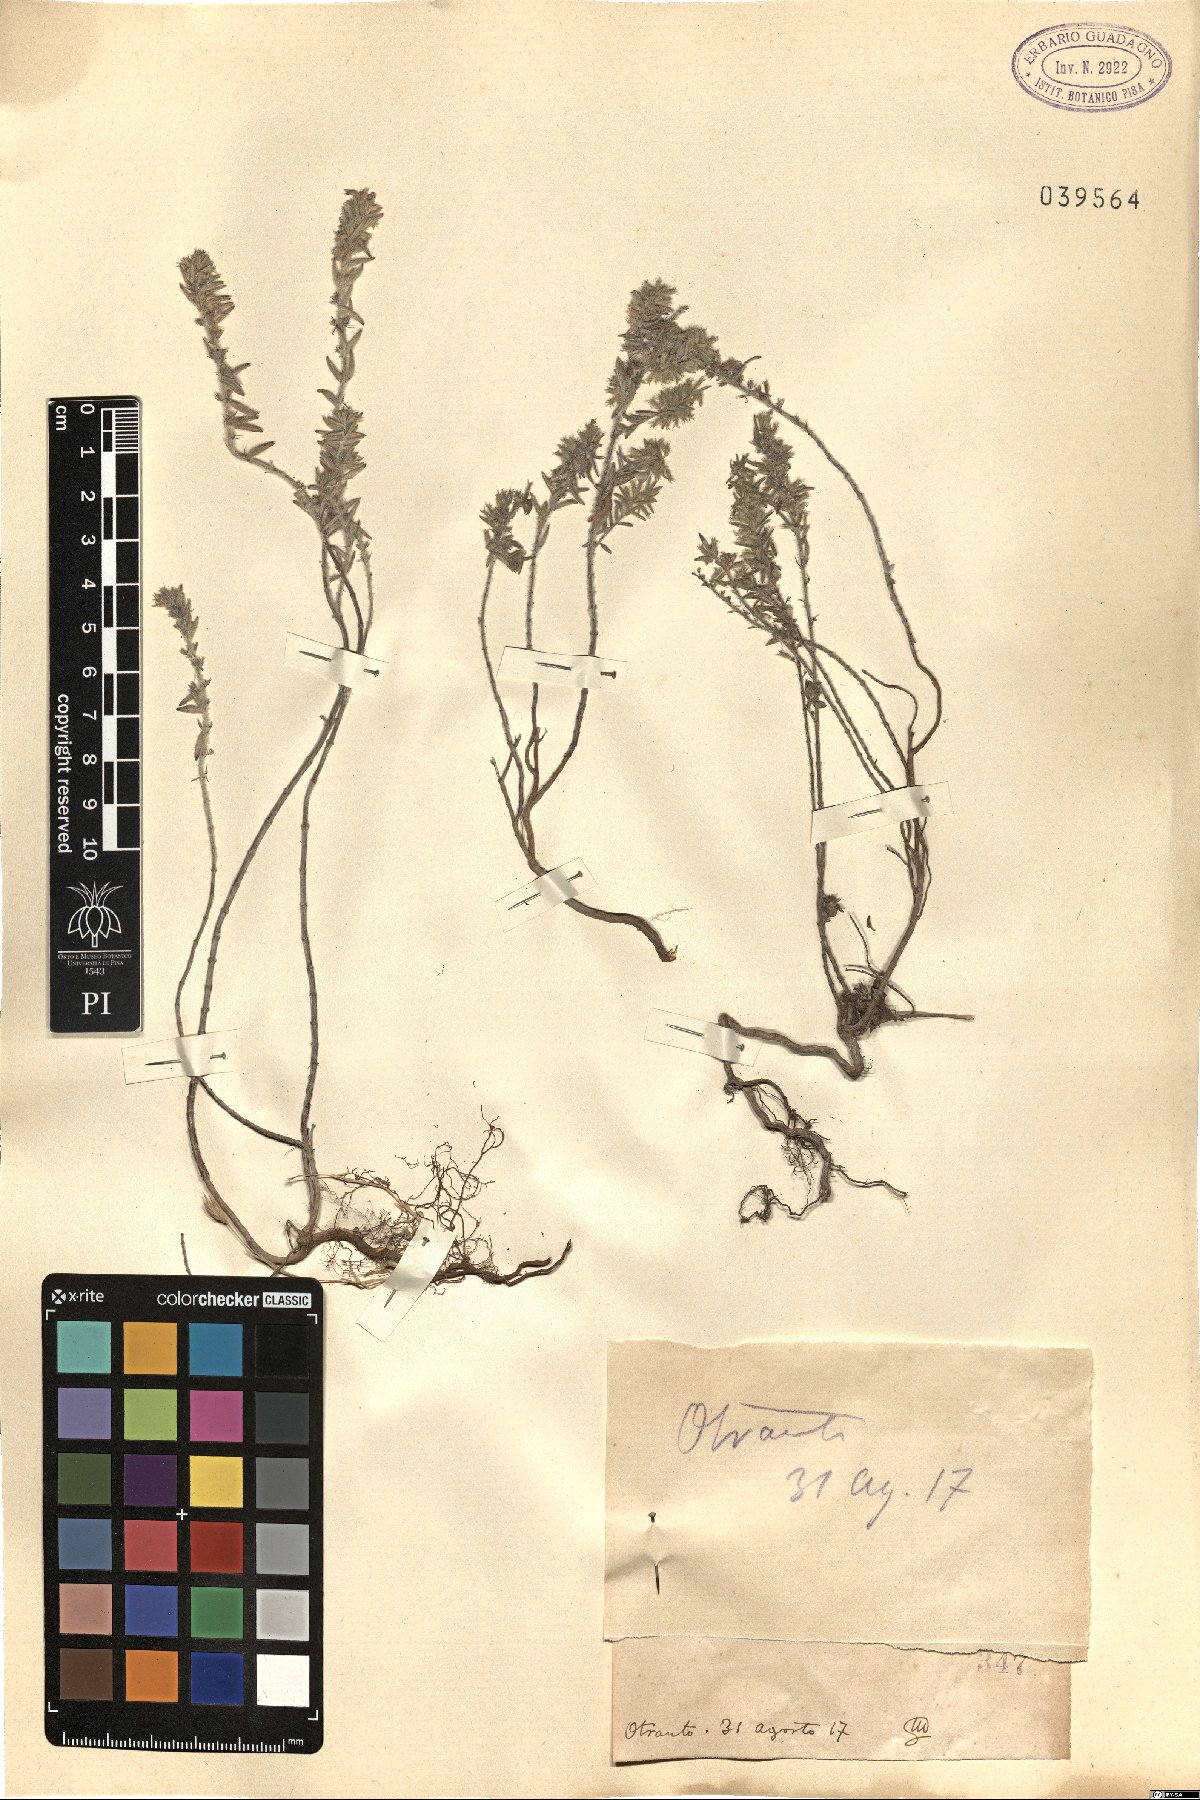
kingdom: Plantae
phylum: Tracheophyta
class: Magnoliopsida
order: Lamiales
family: Lamiaceae
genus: Micromeria
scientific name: Micromeria
